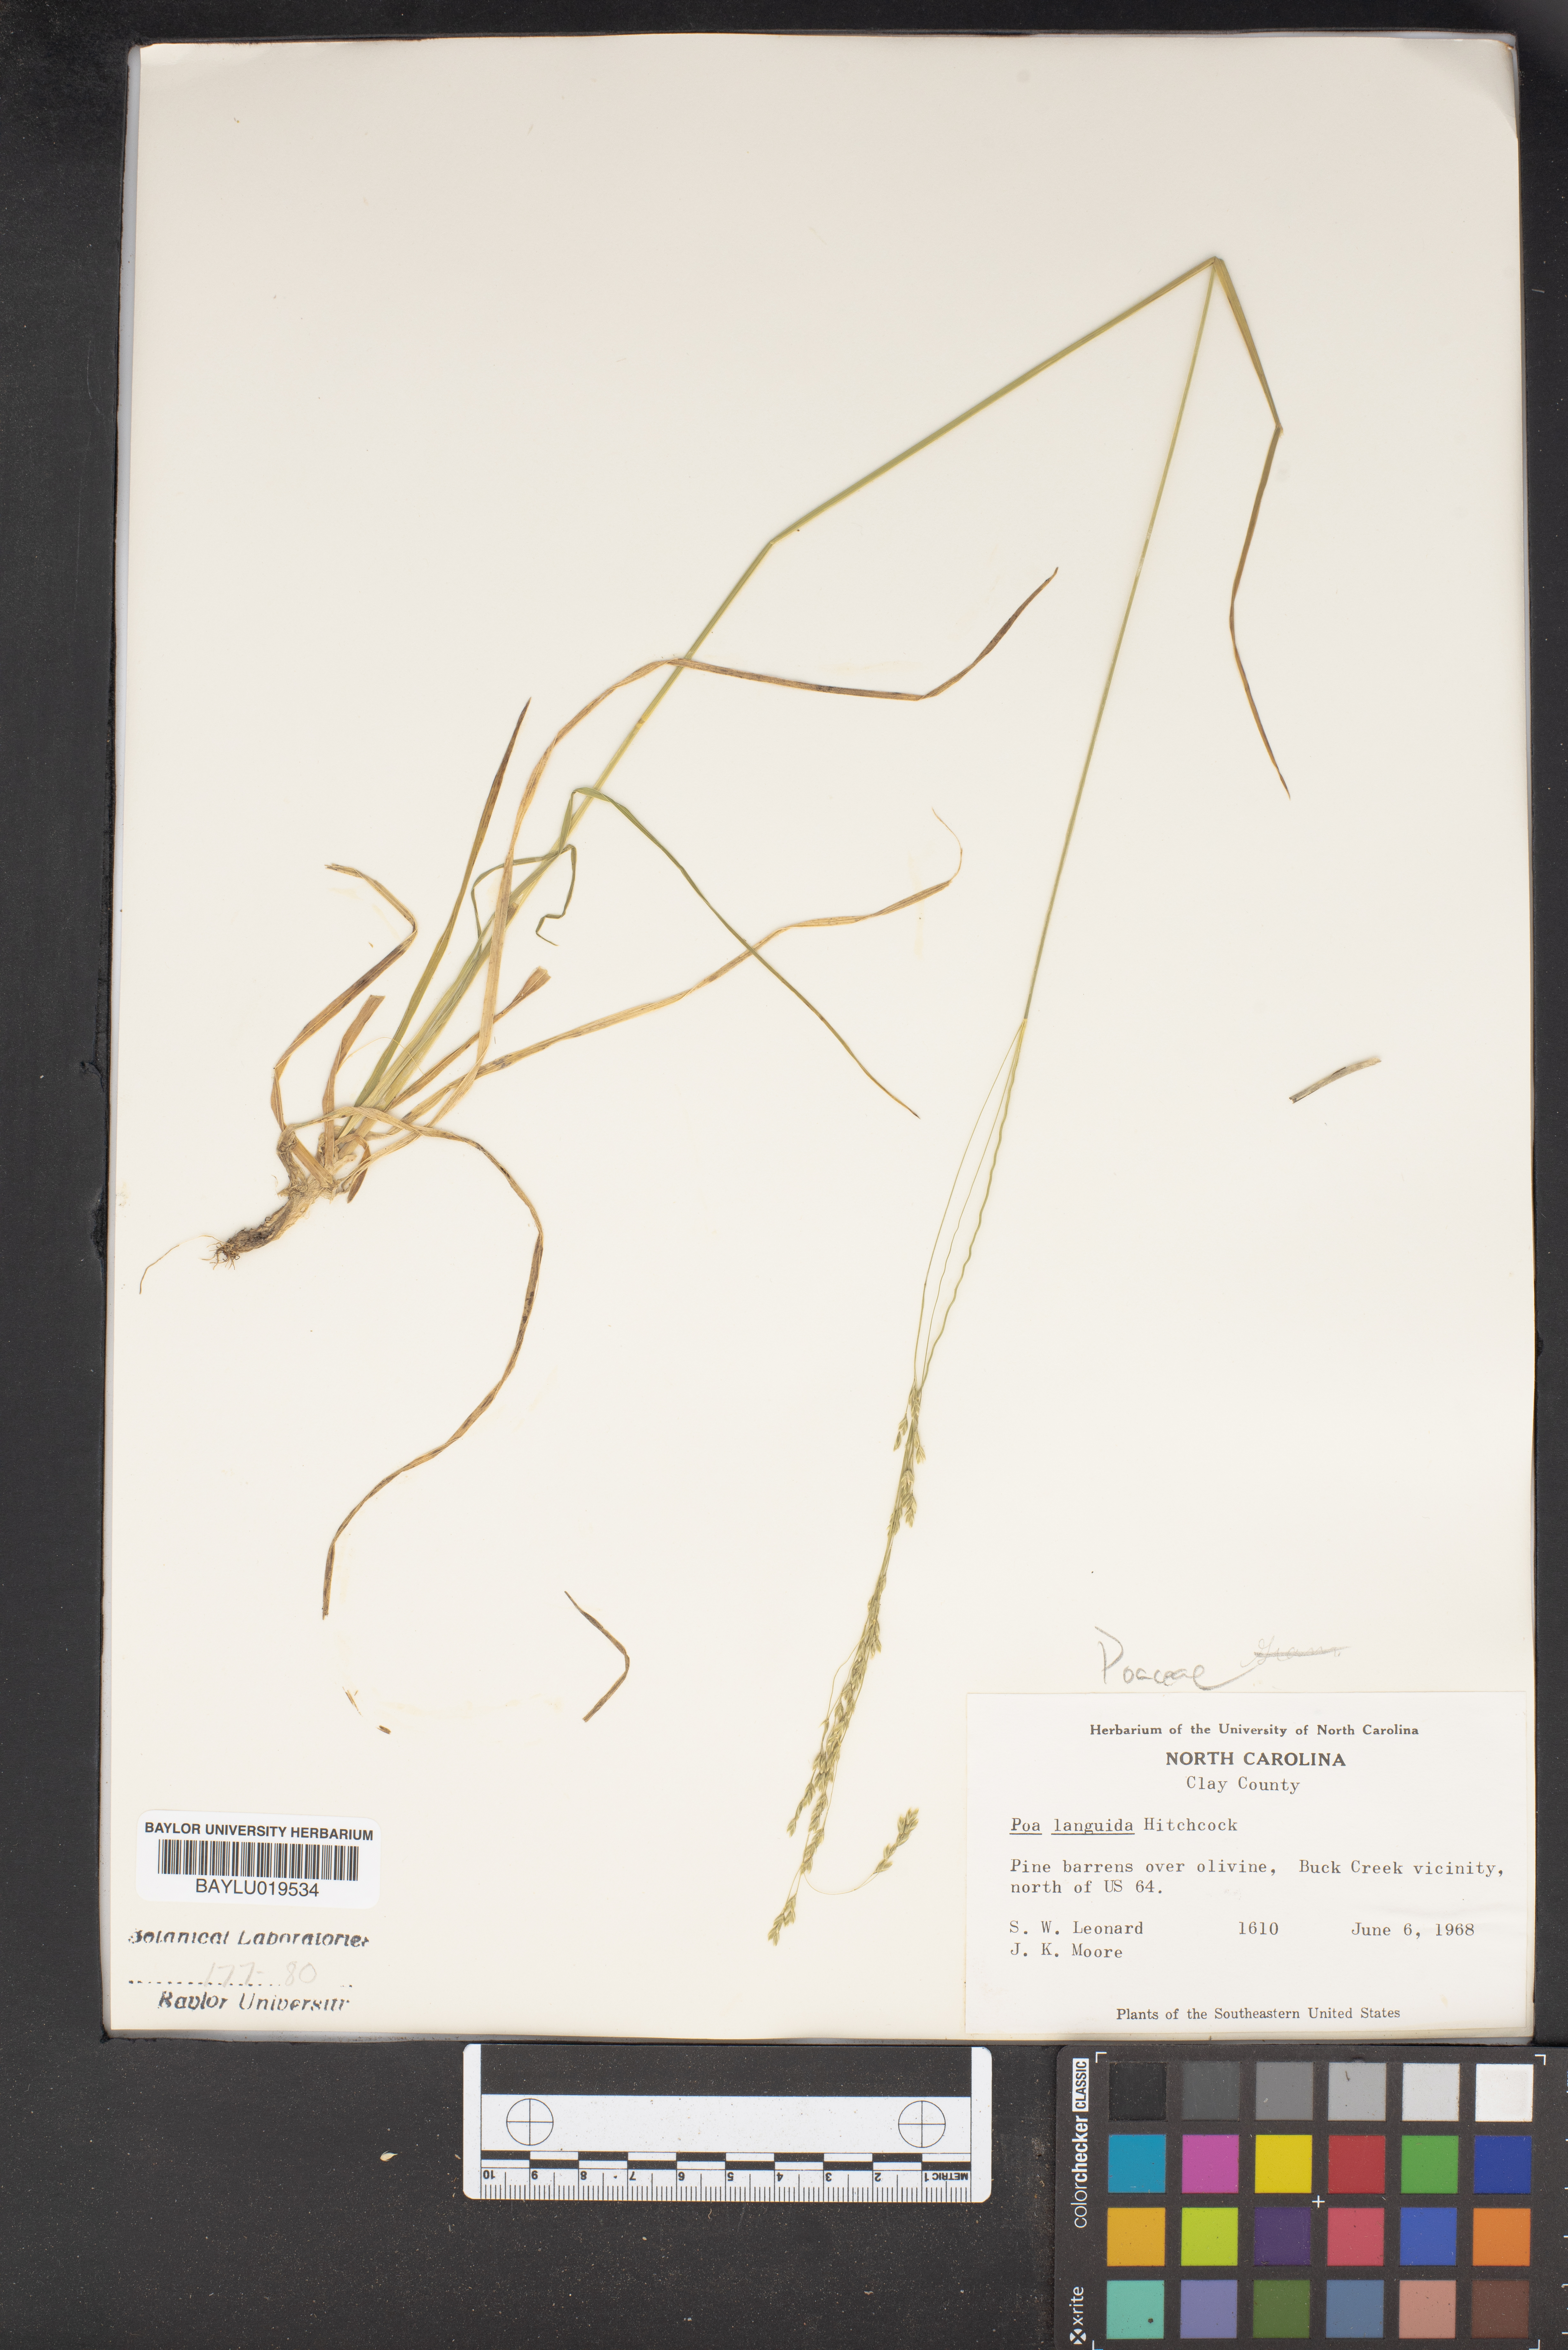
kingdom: Plantae
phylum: Tracheophyta
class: Liliopsida
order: Poales
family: Poaceae
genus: Poa
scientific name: Poa saltuensis
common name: Bushy pasture speargrass
